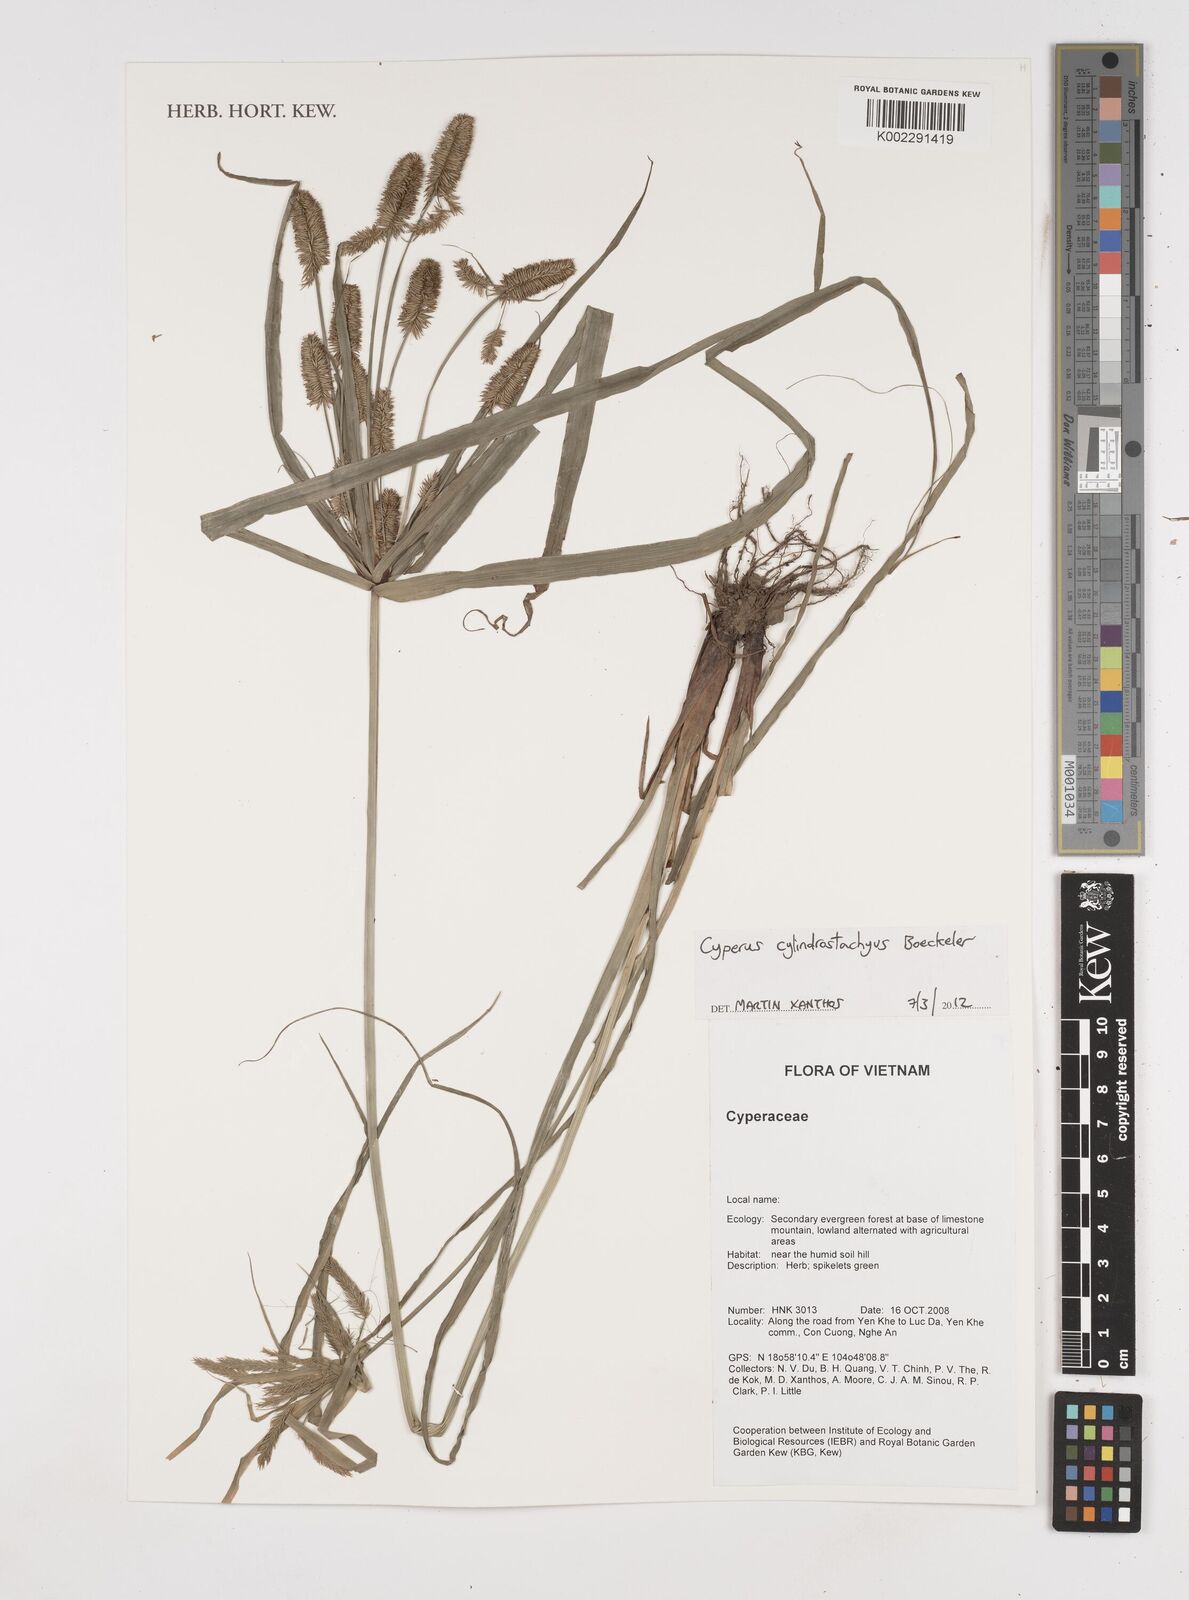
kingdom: Plantae
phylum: Tracheophyta
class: Liliopsida
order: Poales
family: Cyperaceae
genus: Cyperus
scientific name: Cyperus cyperoides
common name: Pacific island flat sedge
